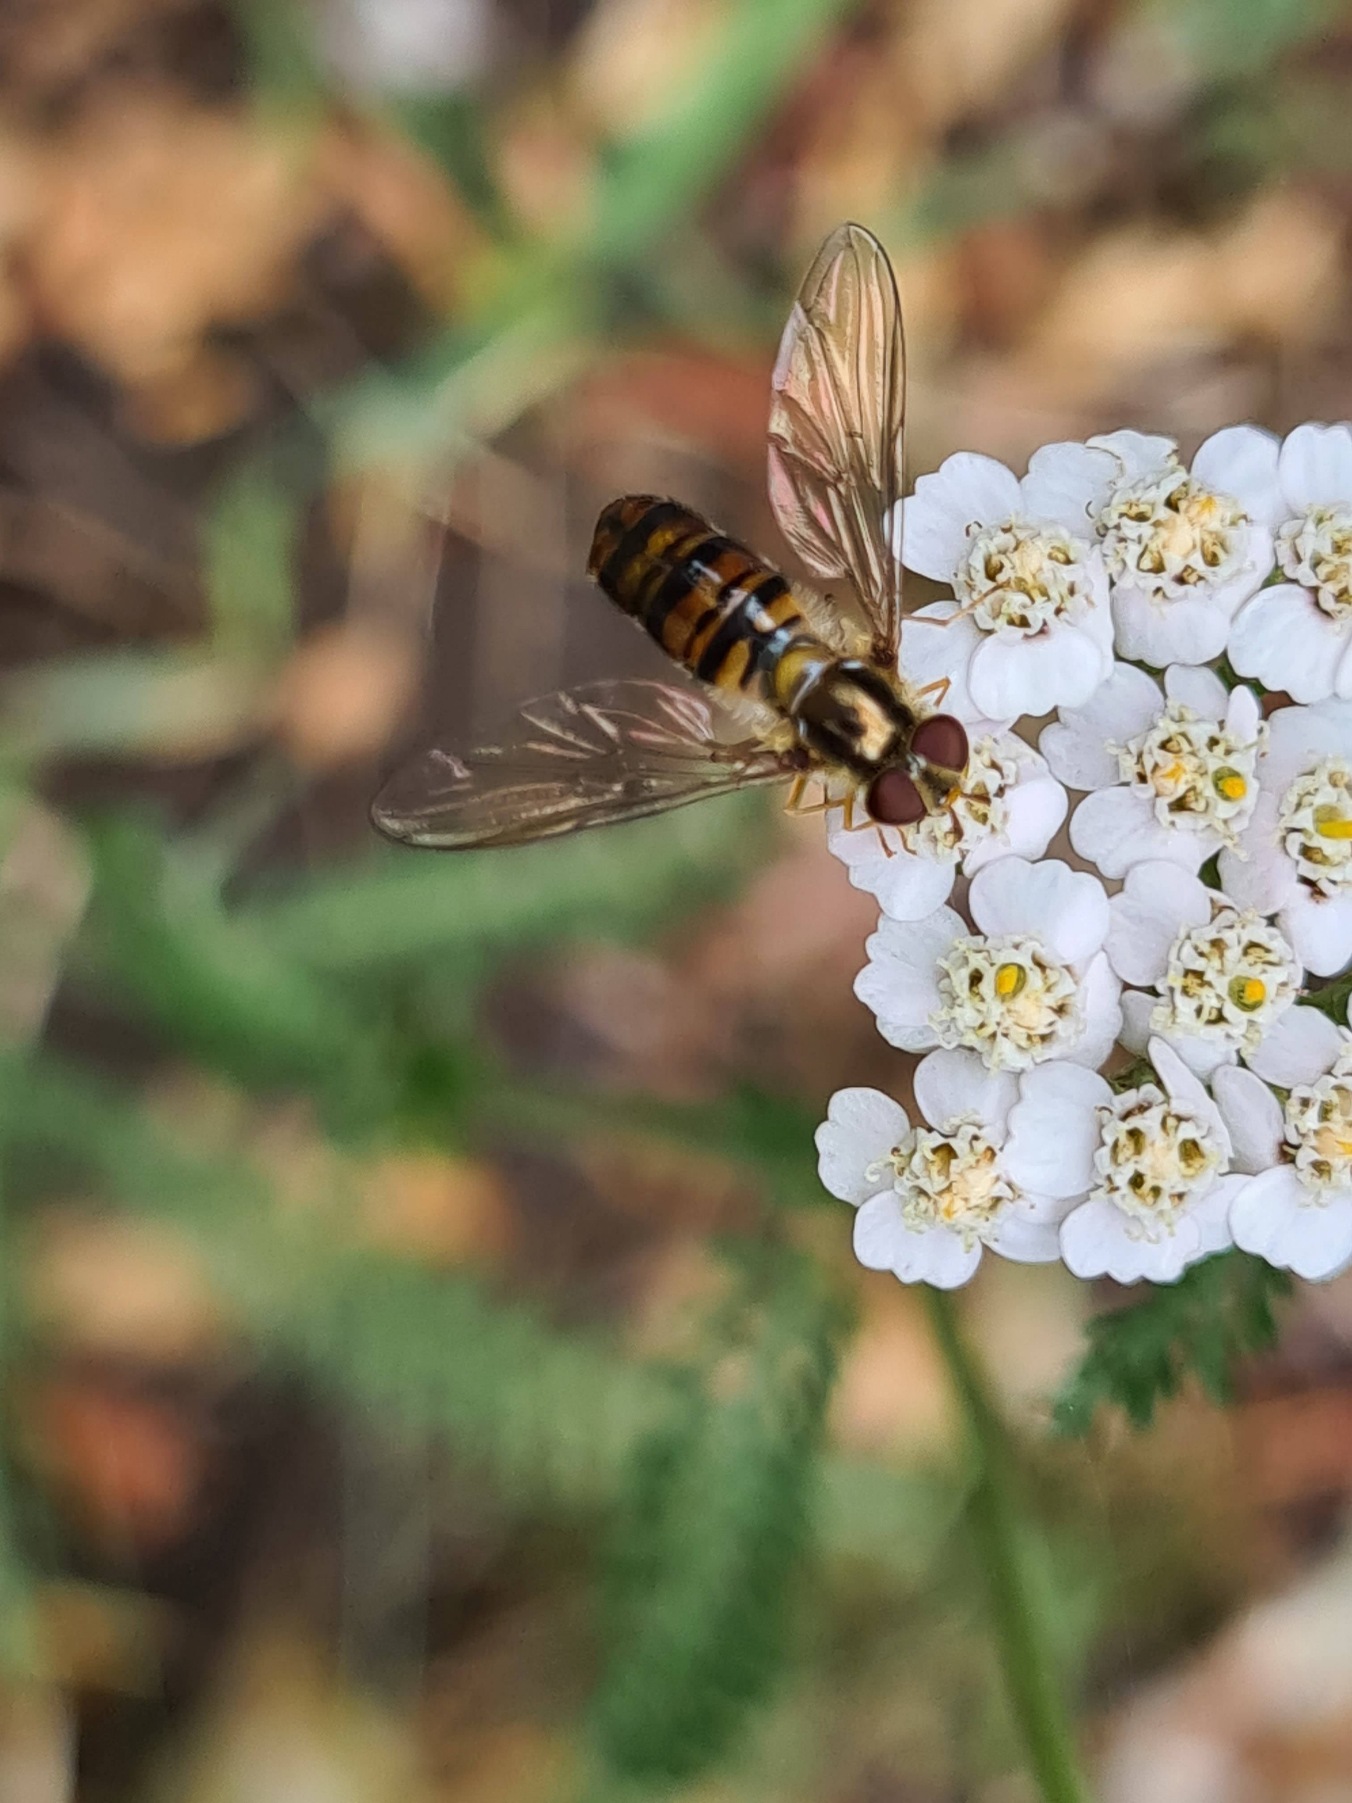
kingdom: Animalia
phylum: Arthropoda
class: Insecta
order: Diptera
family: Syrphidae
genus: Episyrphus
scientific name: Episyrphus balteatus
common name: Dobbeltbåndet svirreflue
